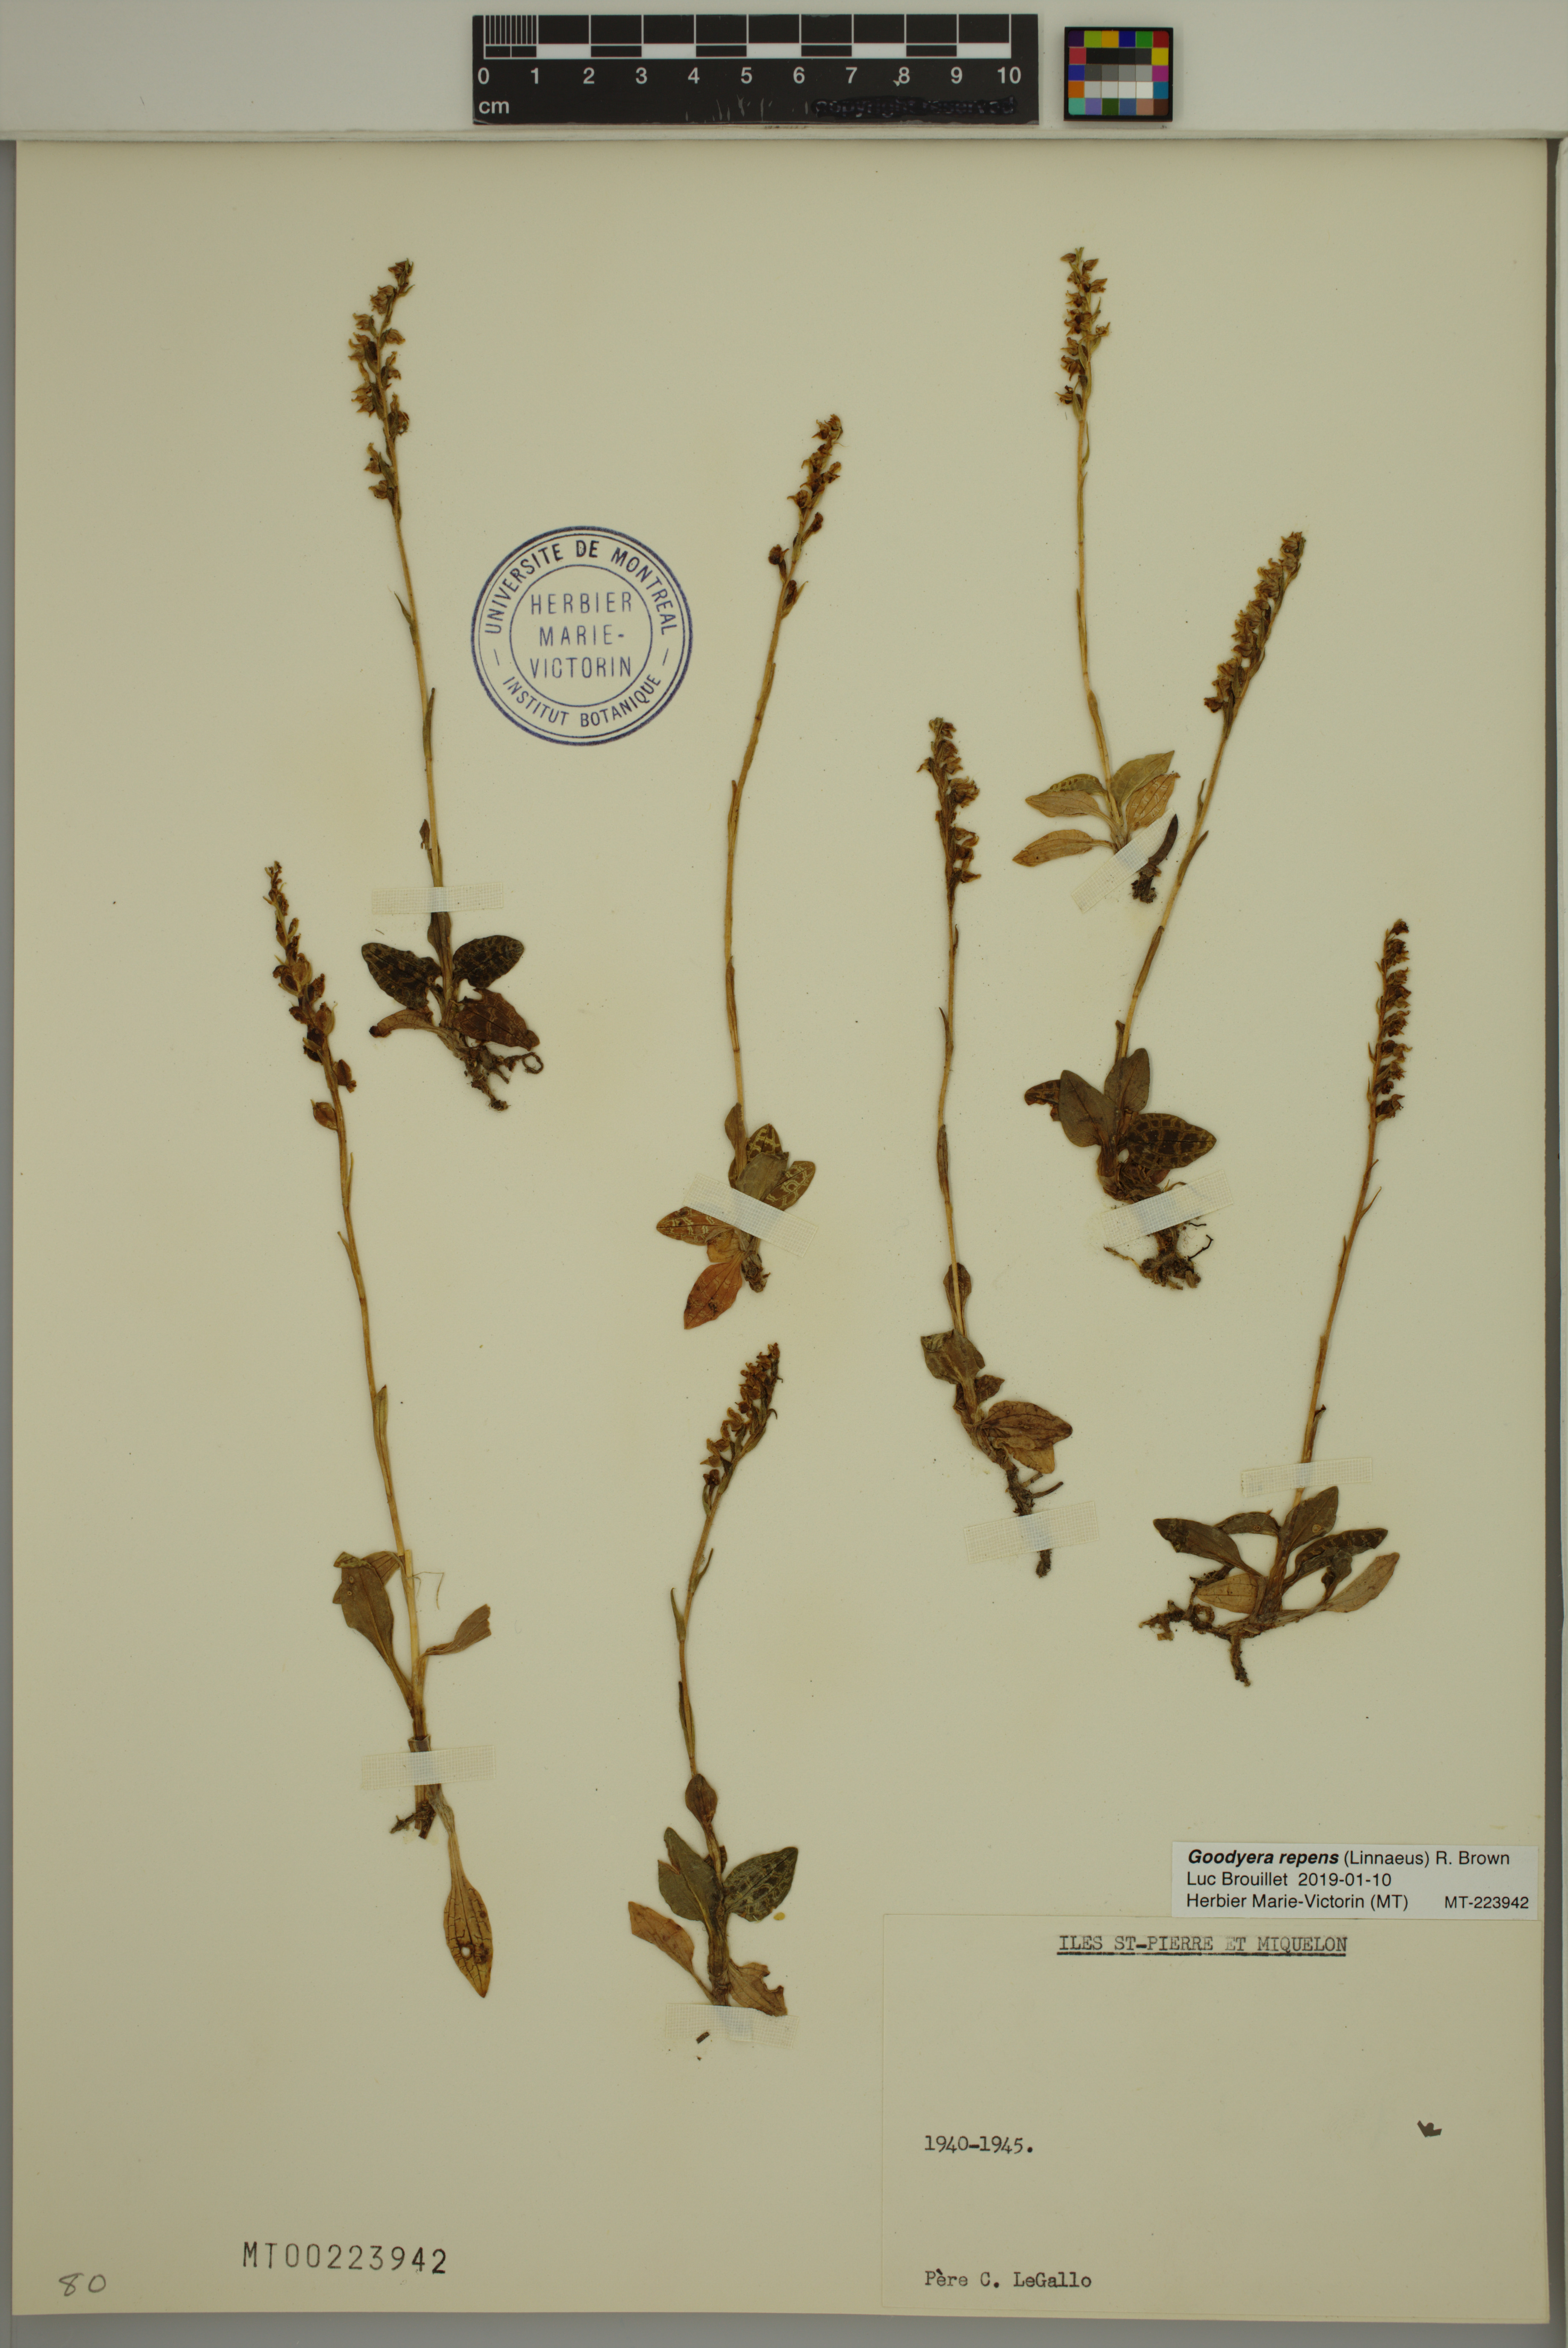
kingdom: Plantae
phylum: Tracheophyta
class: Liliopsida
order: Asparagales
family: Orchidaceae
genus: Goodyera
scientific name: Goodyera repens
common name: Creeping lady's-tresses
